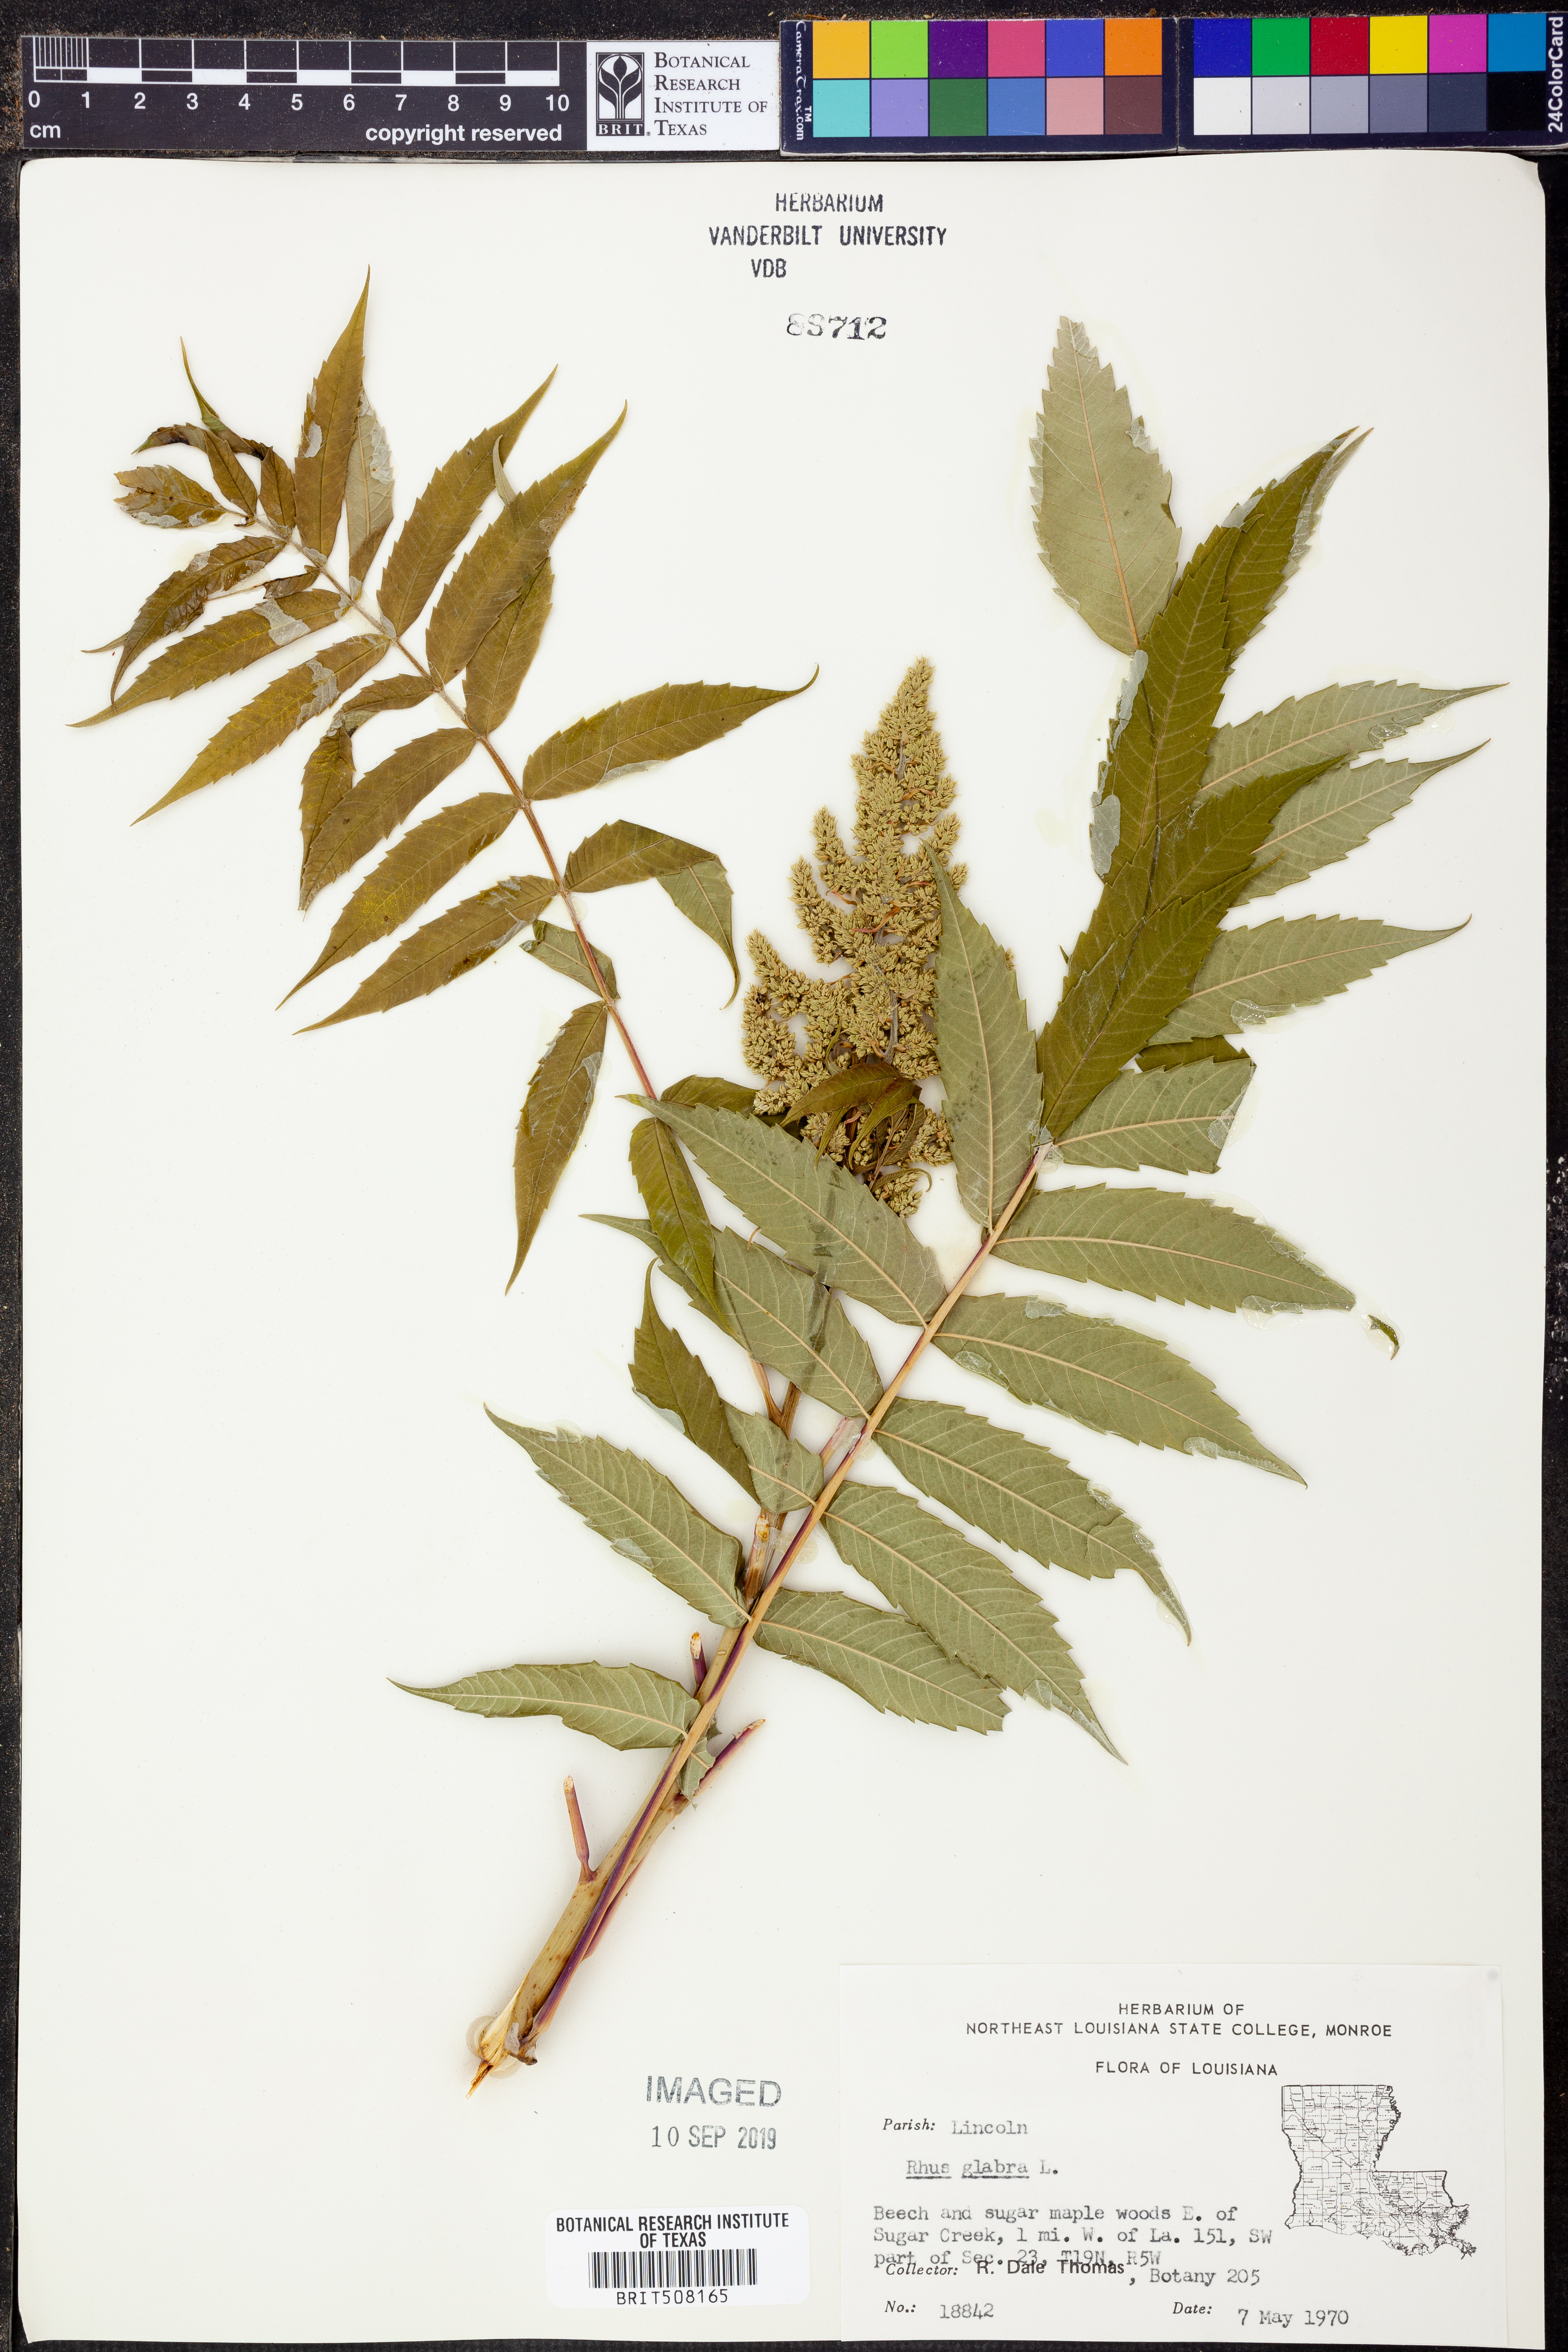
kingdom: Plantae
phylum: Tracheophyta
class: Magnoliopsida
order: Sapindales
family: Anacardiaceae
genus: Rhus
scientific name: Rhus glabra
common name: Scarlet sumac
